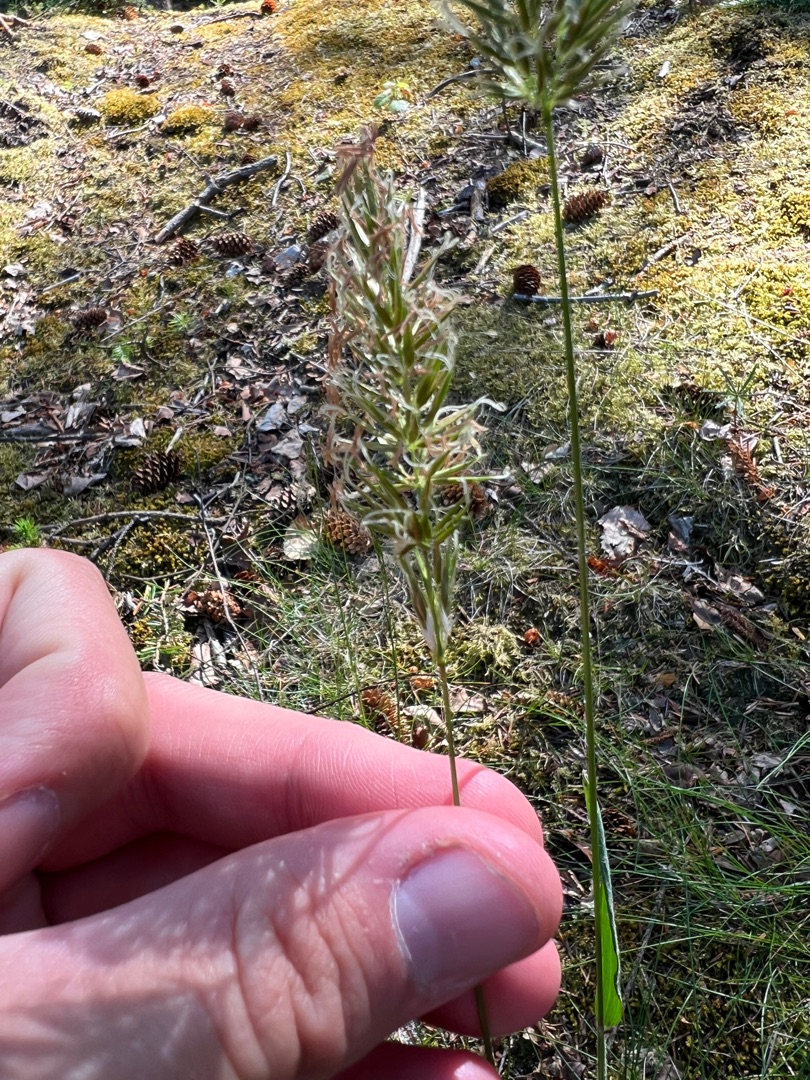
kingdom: Plantae
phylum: Tracheophyta
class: Liliopsida
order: Poales
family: Poaceae
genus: Anthoxanthum
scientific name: Anthoxanthum odoratum
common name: Vellugtende gulaks
